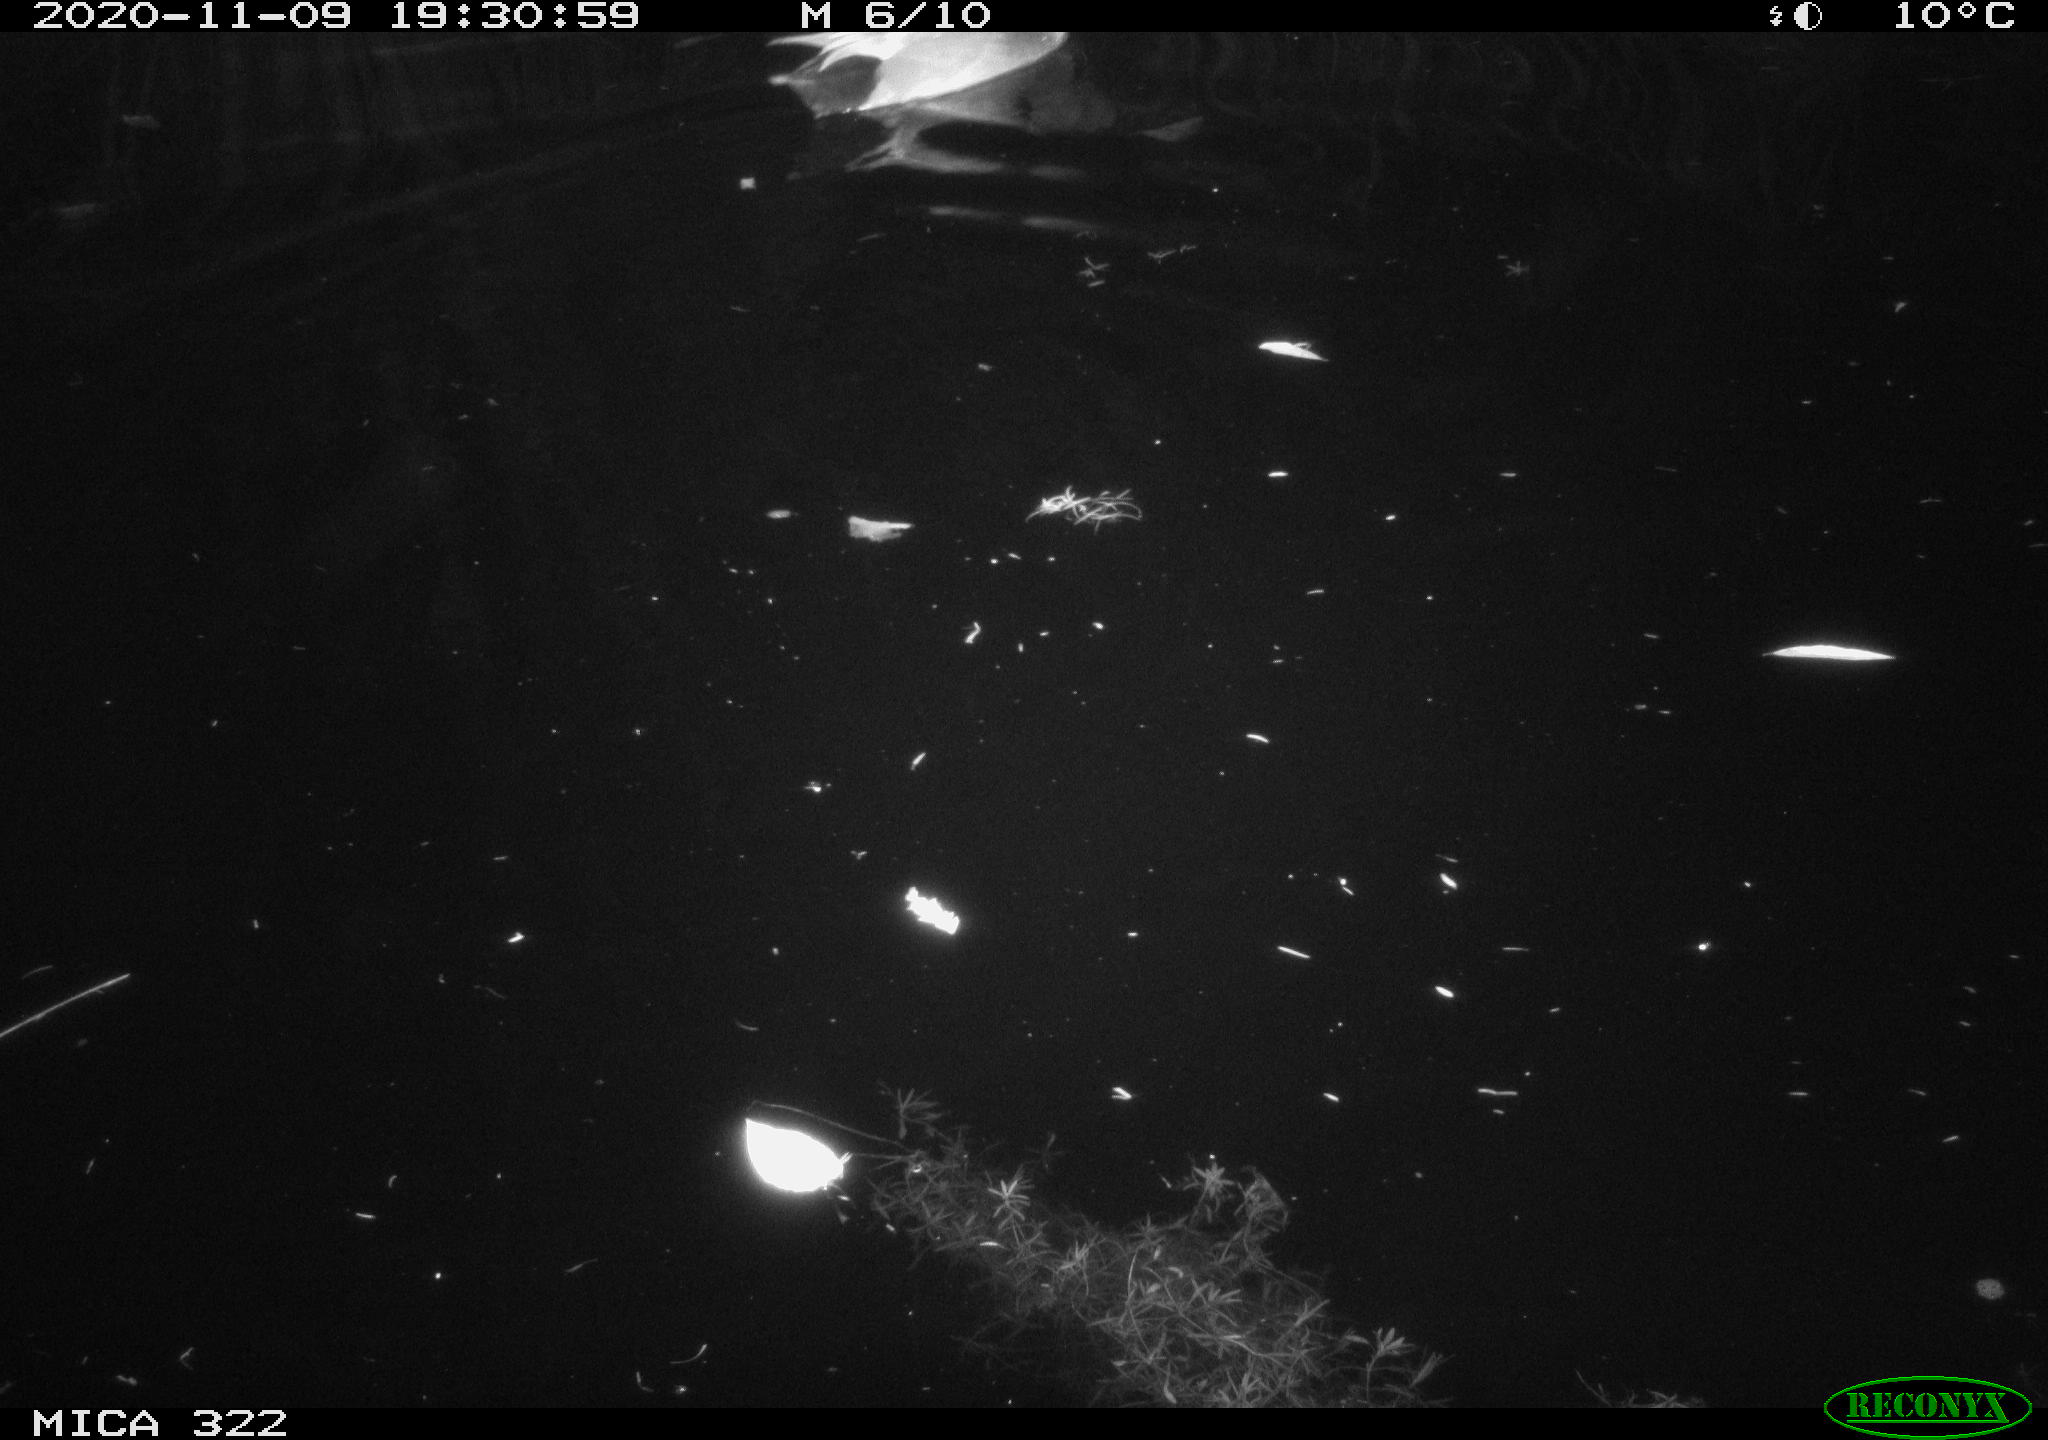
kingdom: Animalia
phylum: Chordata
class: Aves
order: Anseriformes
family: Anatidae
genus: Mareca
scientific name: Mareca strepera
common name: Gadwall
